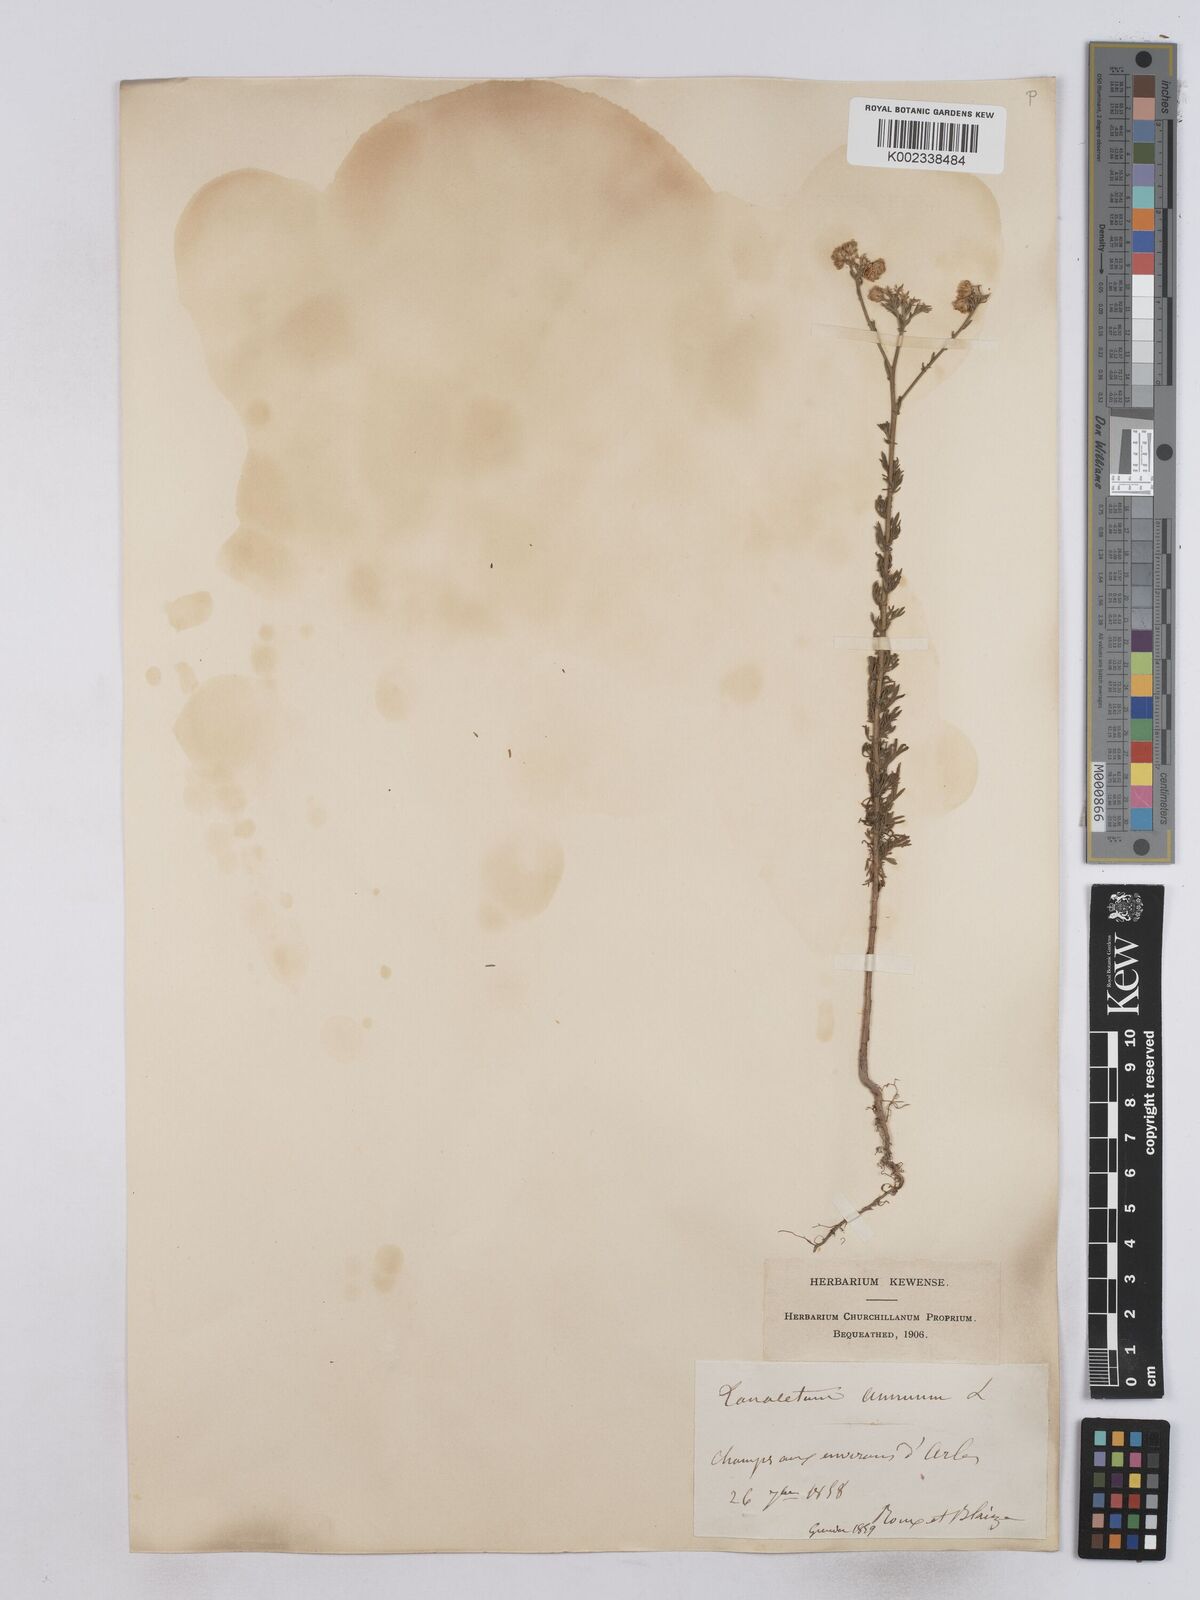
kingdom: Plantae
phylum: Tracheophyta
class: Magnoliopsida
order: Asterales
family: Asteraceae
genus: Vogtia
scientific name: Vogtia annua
